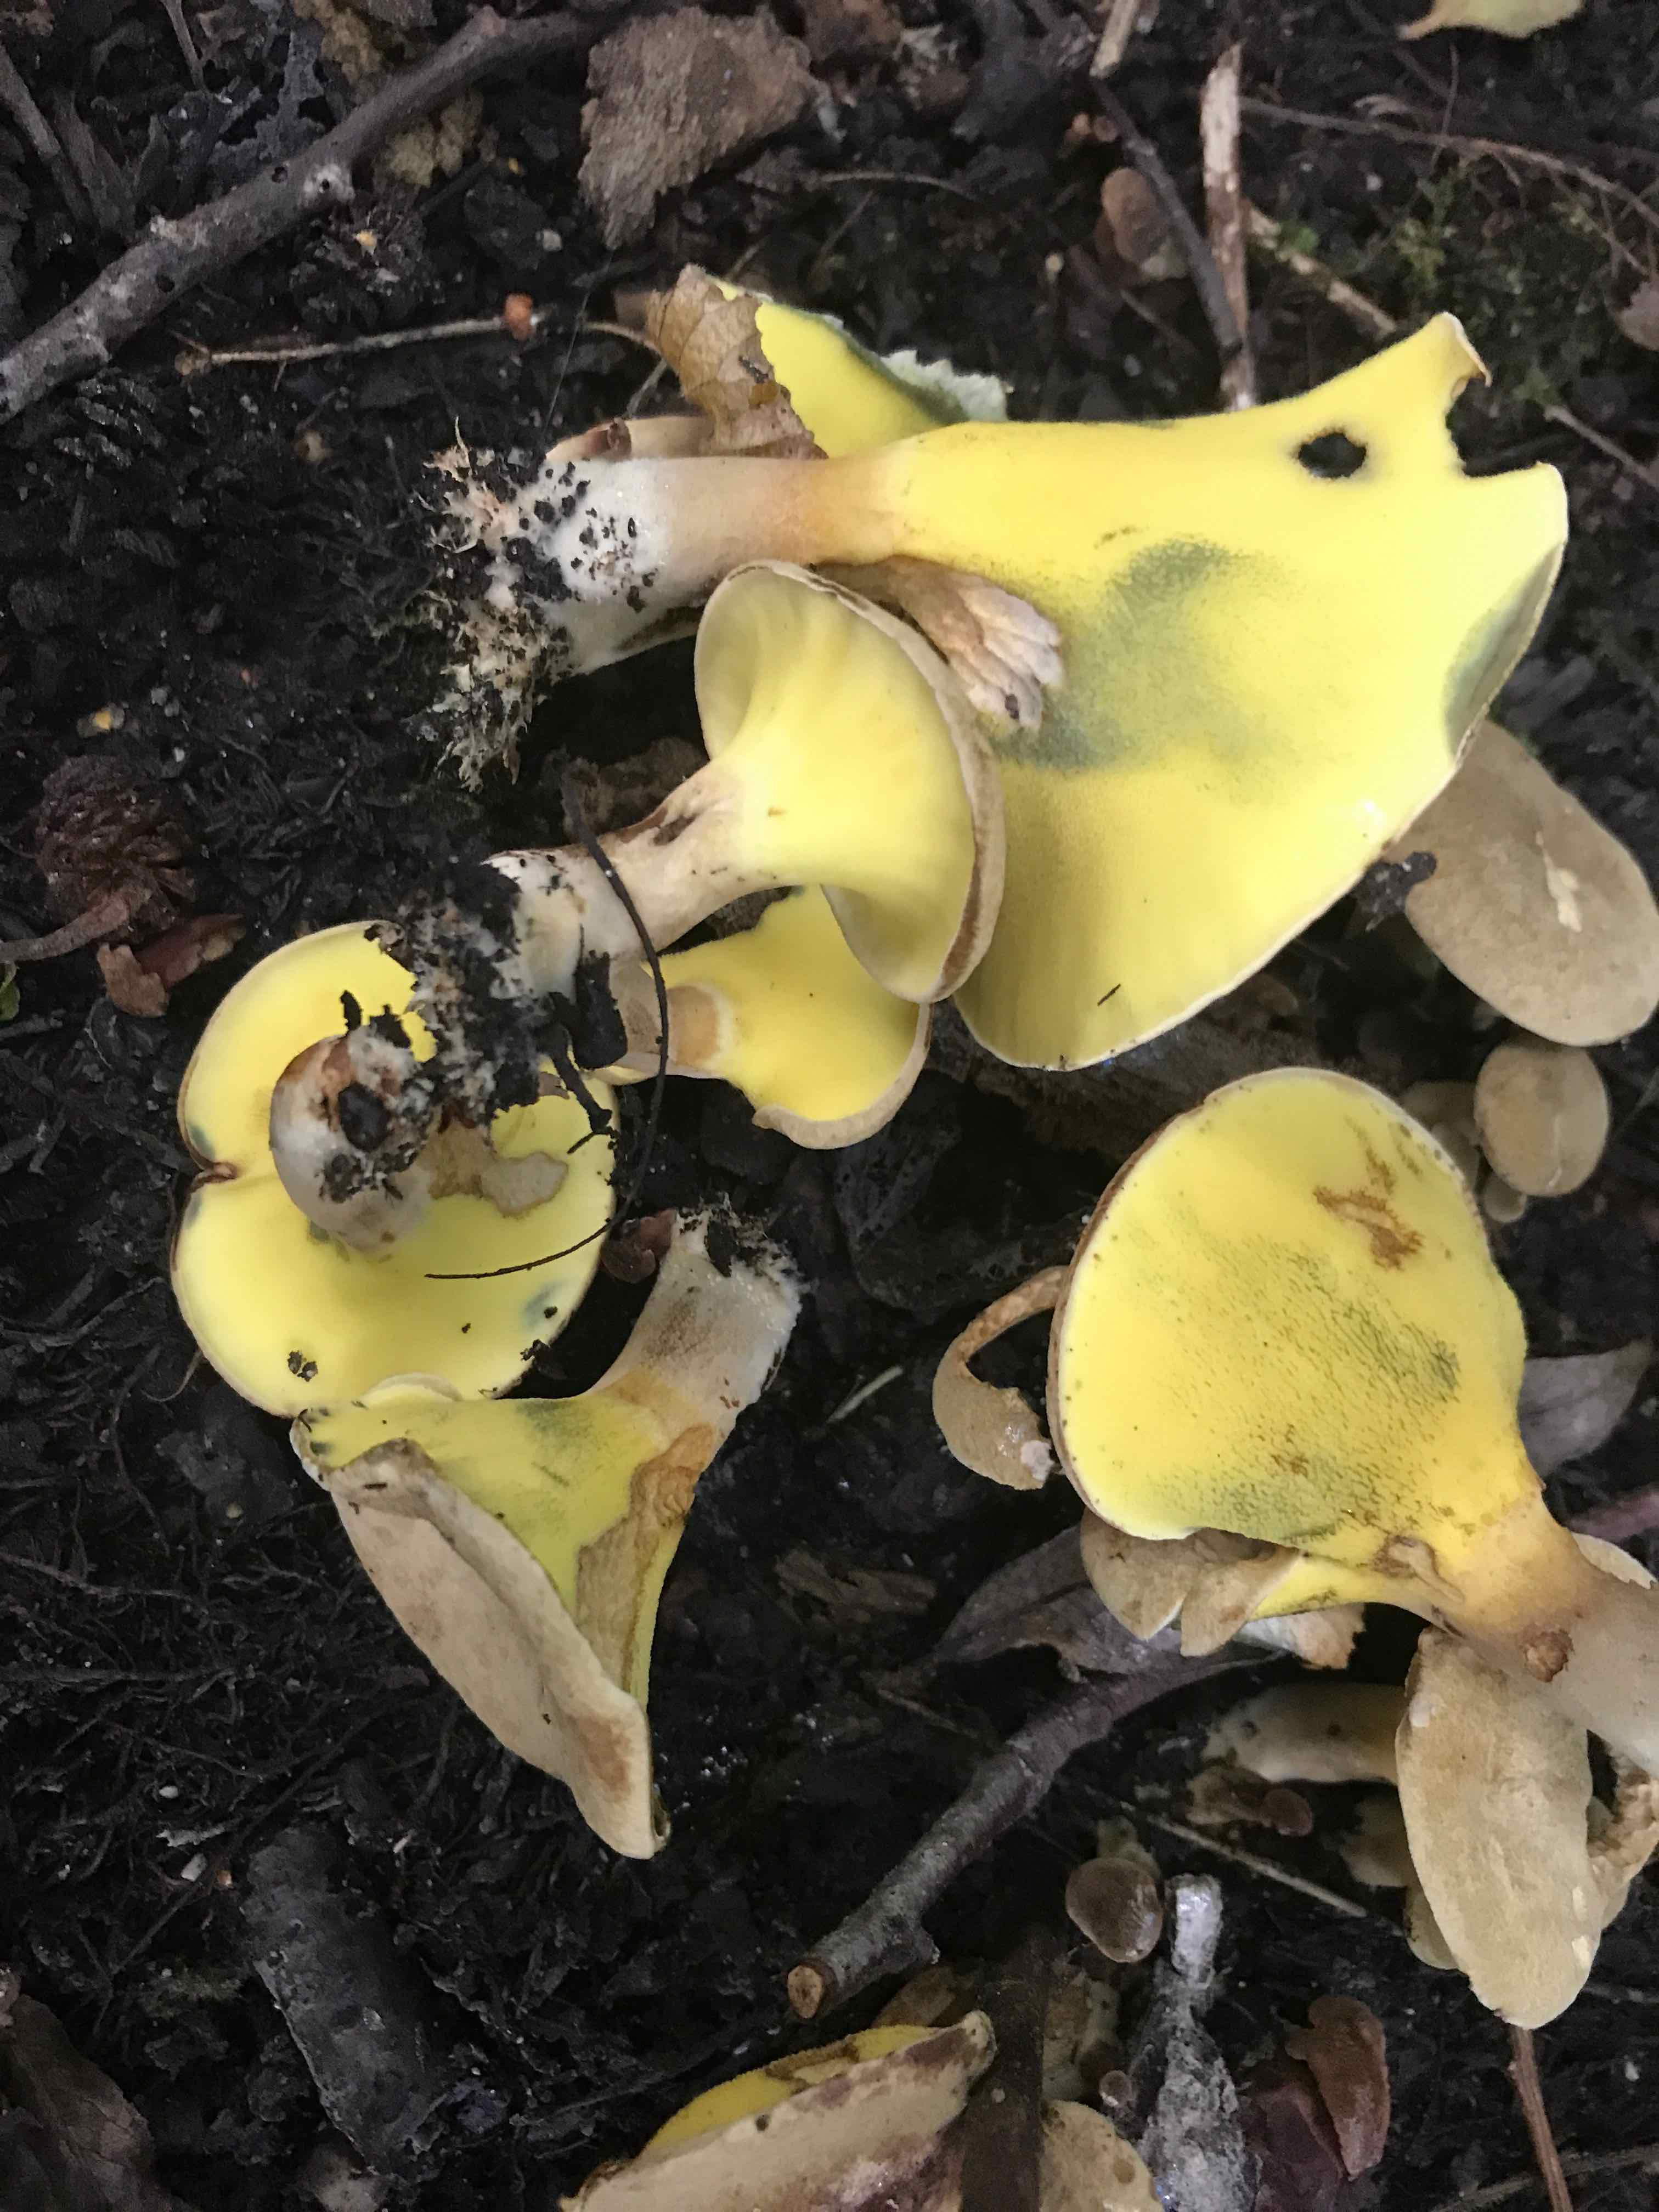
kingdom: Fungi
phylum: Basidiomycota
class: Agaricomycetes
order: Boletales
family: Paxillaceae
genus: Gyrodon
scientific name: Gyrodon lividus
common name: ellerørhat
